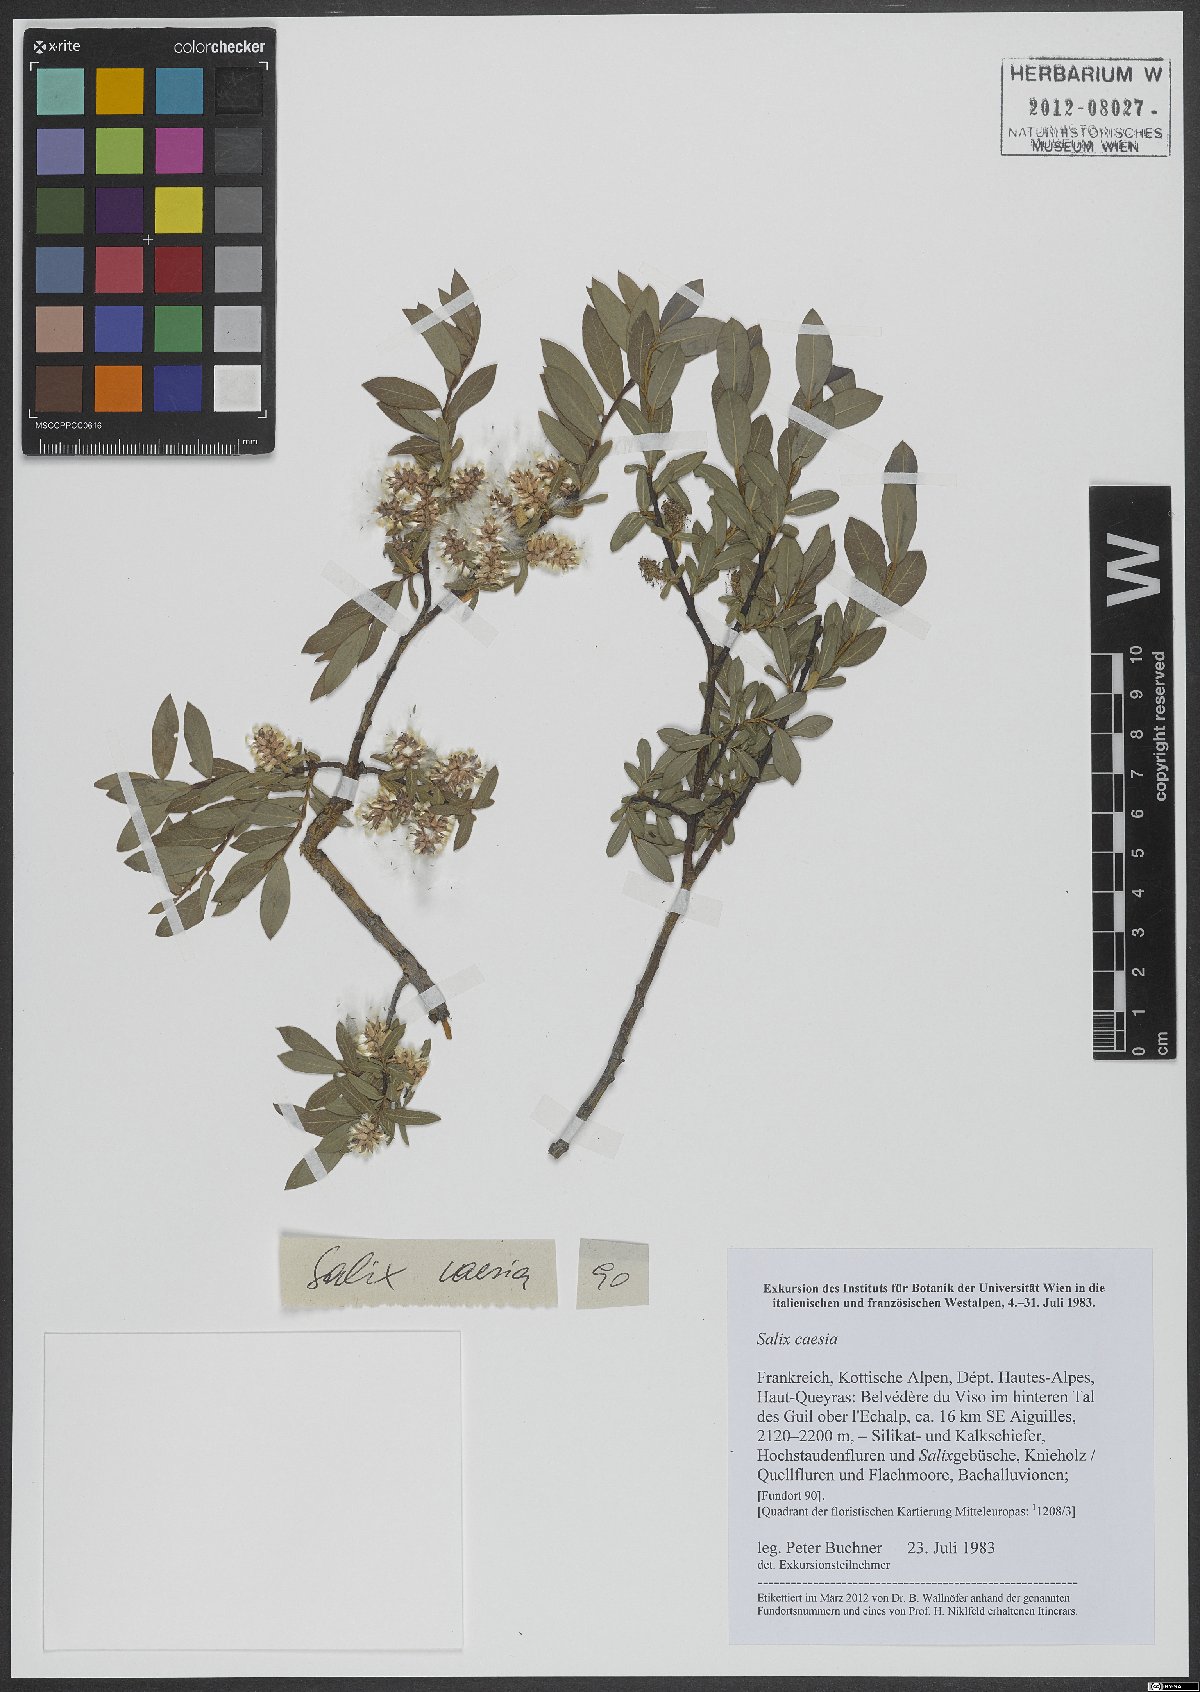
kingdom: Plantae
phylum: Tracheophyta
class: Magnoliopsida
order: Malpighiales
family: Salicaceae
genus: Salix
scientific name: Salix caesia
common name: Blue willow
